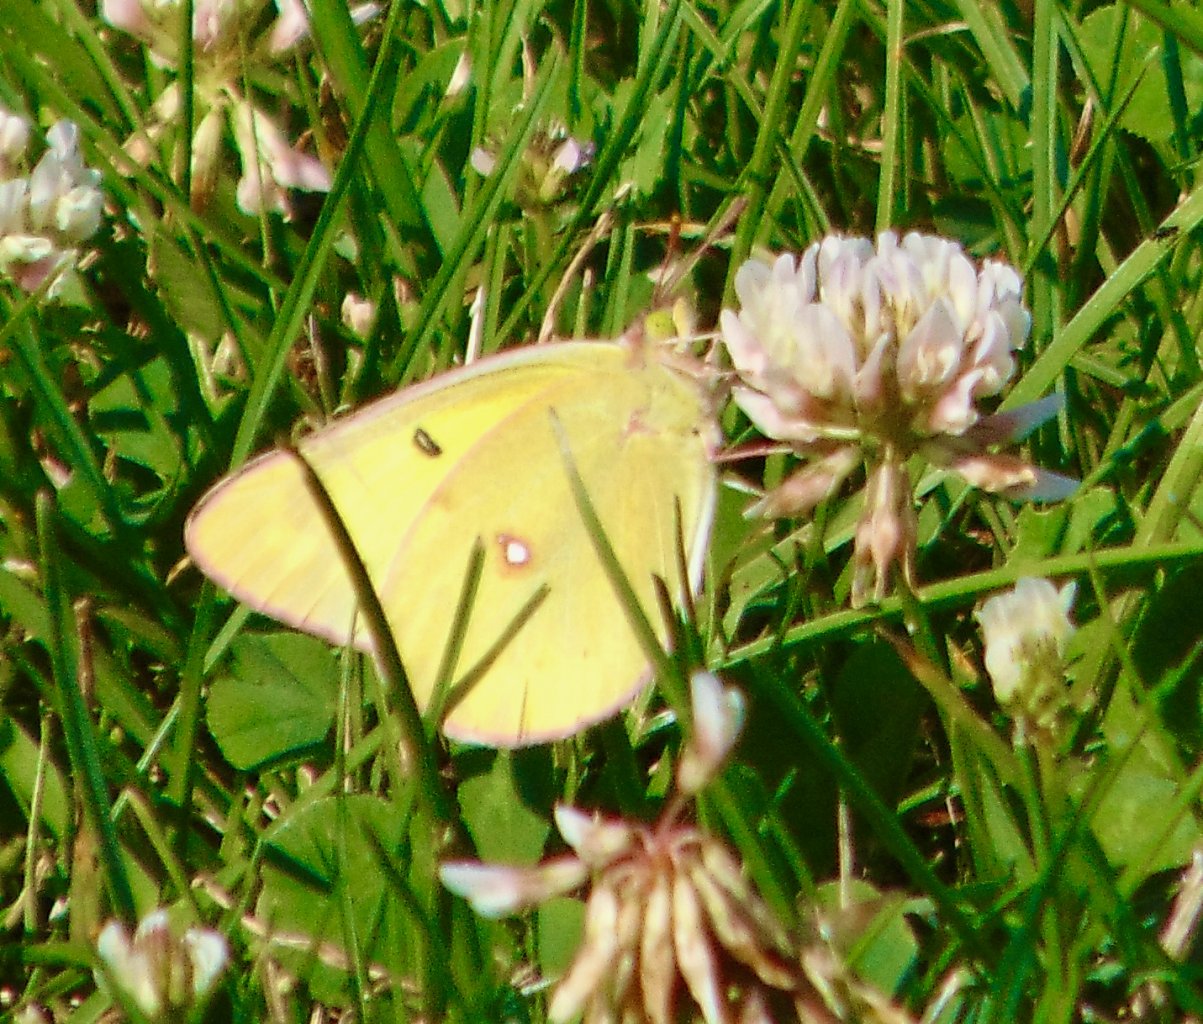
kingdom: Animalia
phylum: Arthropoda
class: Insecta
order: Lepidoptera
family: Pieridae
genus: Colias
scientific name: Colias philodice
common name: Clouded Sulphur
